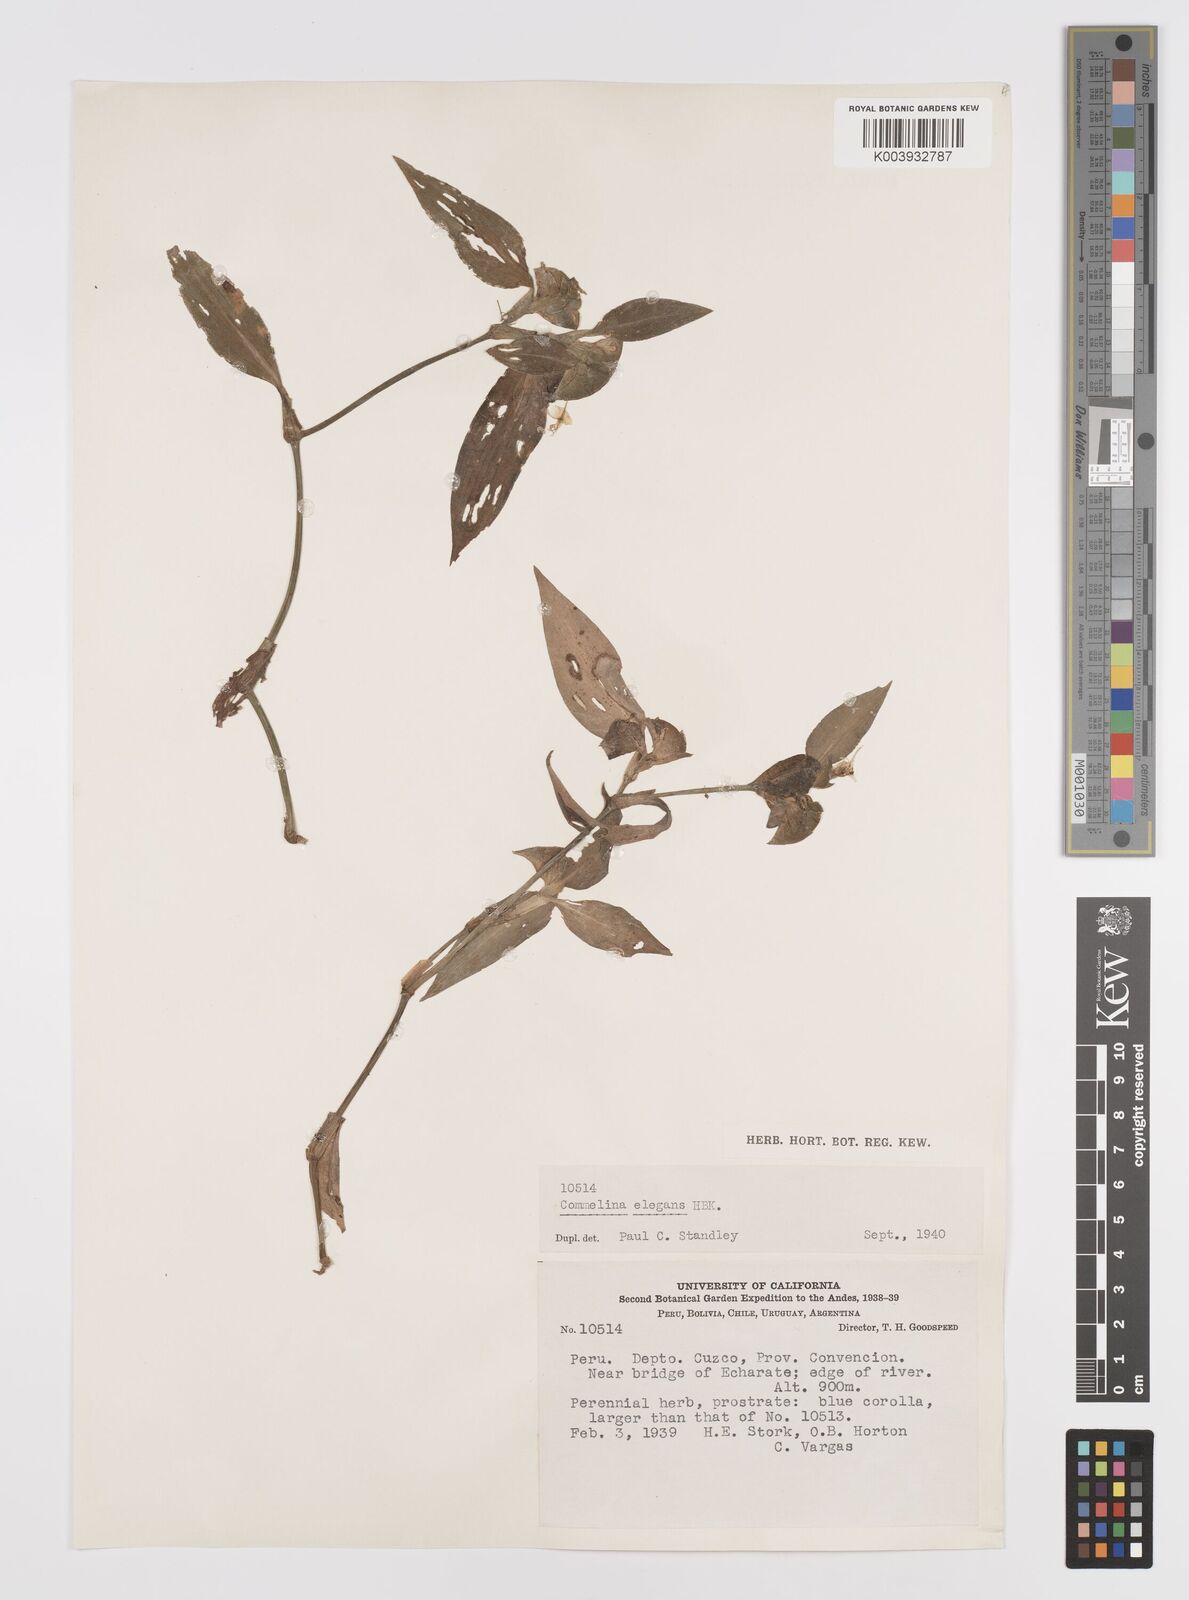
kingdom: Plantae
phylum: Tracheophyta
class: Liliopsida
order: Commelinales
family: Commelinaceae
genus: Commelina
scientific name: Commelina virginica
